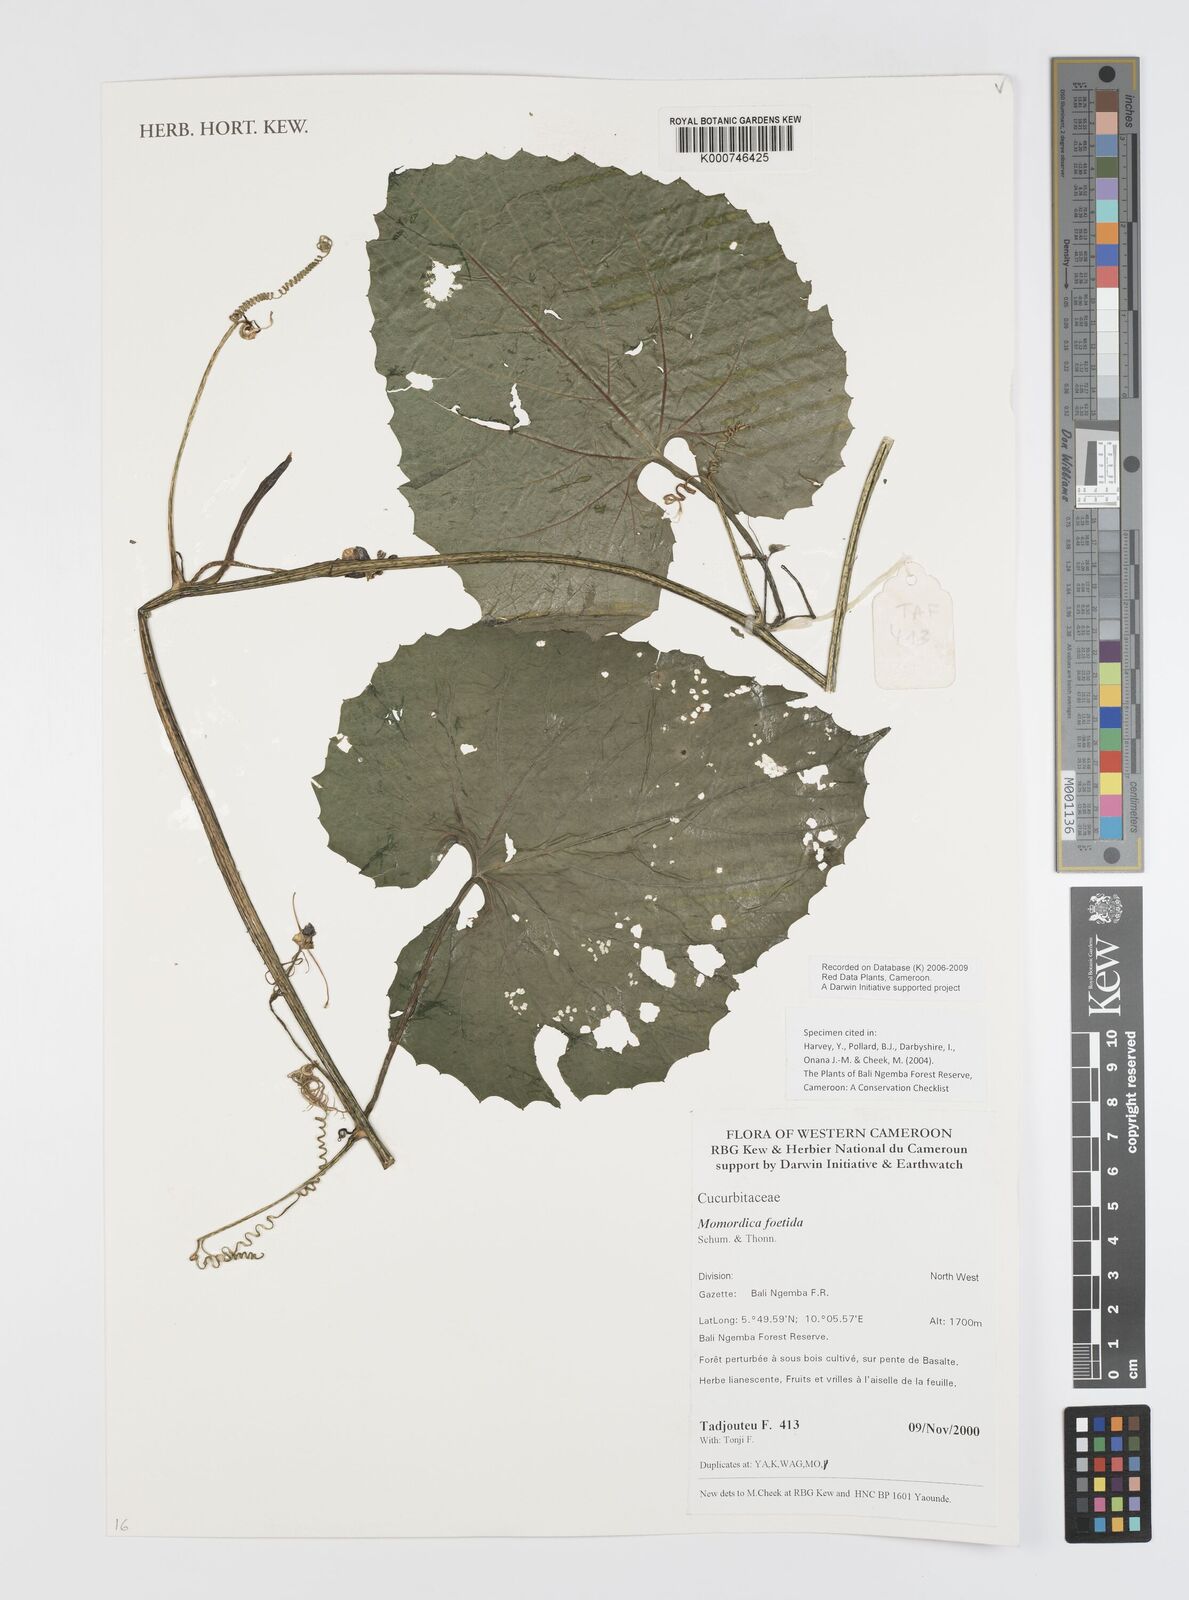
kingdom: Plantae
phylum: Tracheophyta
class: Magnoliopsida
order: Cucurbitales
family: Cucurbitaceae
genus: Momordica
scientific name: Momordica foetida
